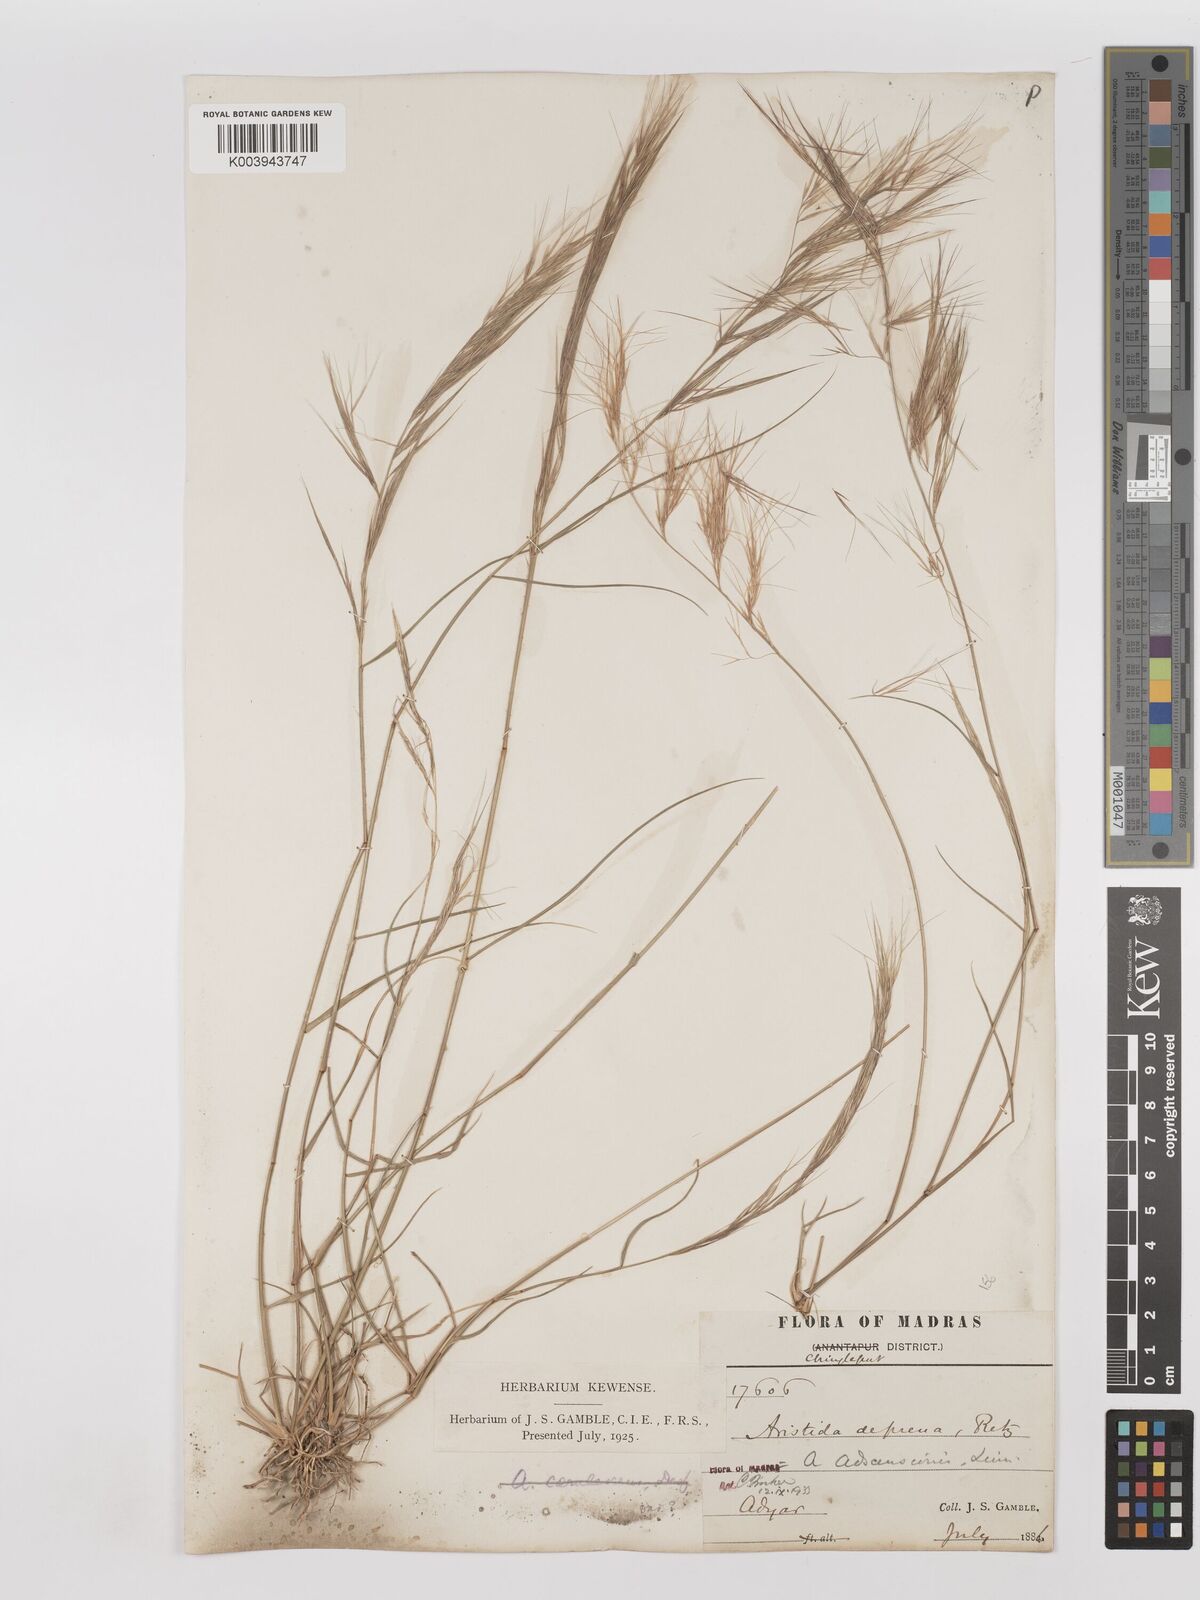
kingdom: Plantae
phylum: Tracheophyta
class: Liliopsida
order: Poales
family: Poaceae
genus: Aristida
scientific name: Aristida adscensionis
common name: Sixweeks threeawn
